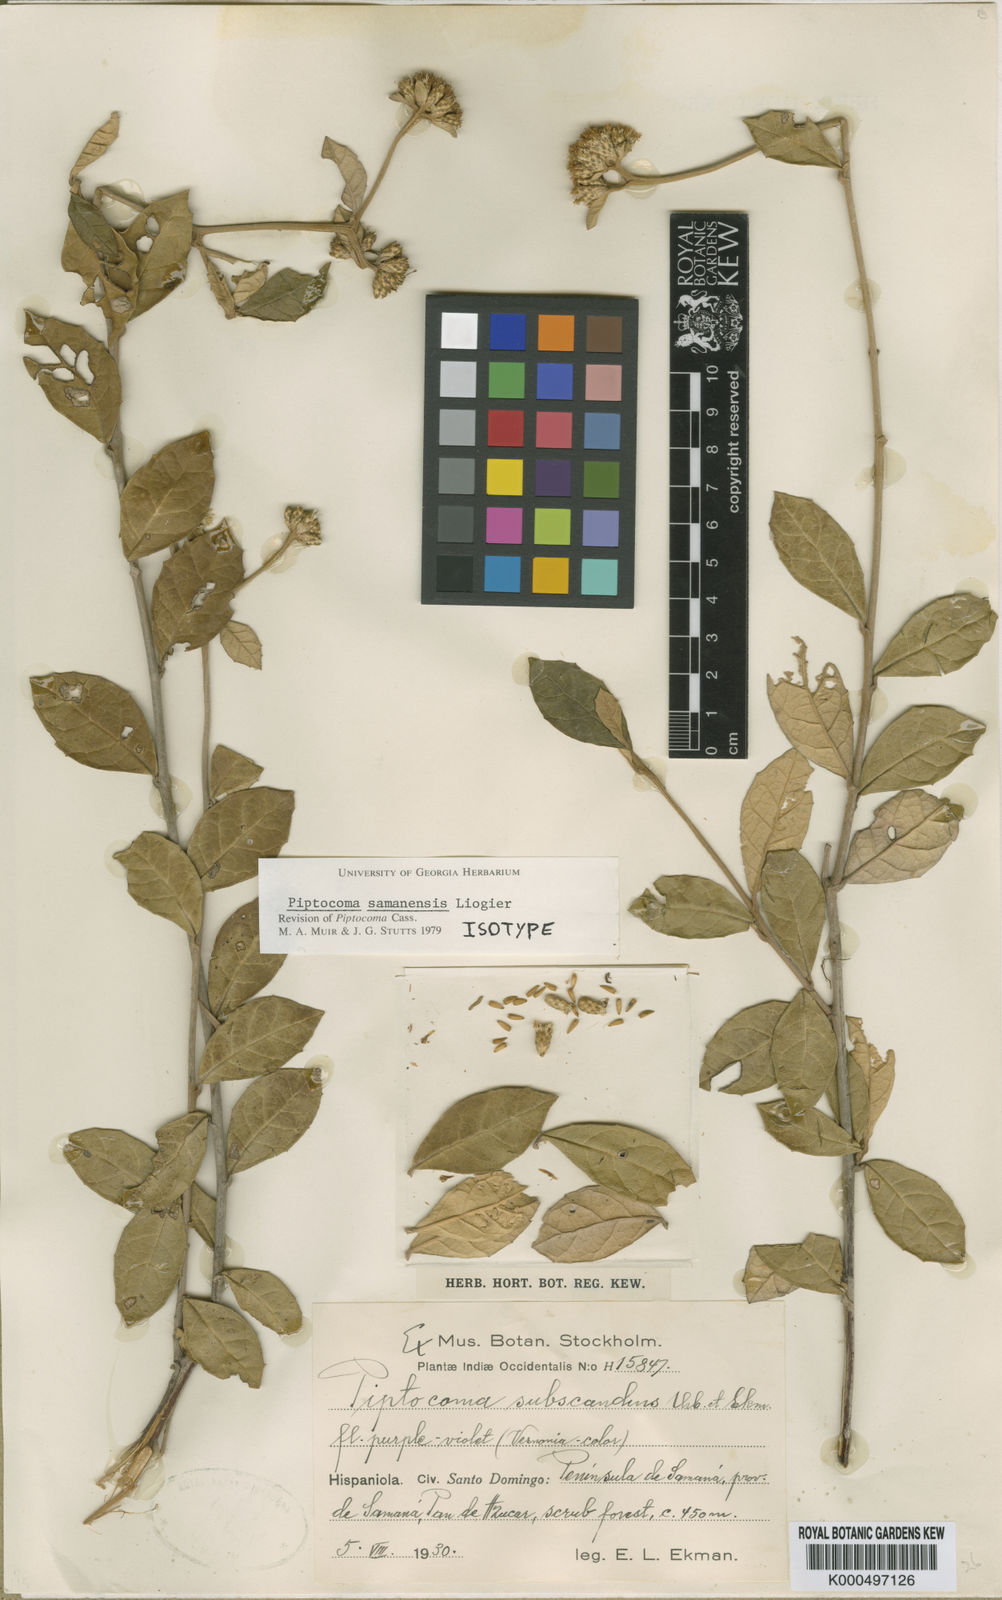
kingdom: Plantae
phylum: Tracheophyta
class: Magnoliopsida
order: Asterales
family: Asteraceae
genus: Piptocoma
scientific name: Piptocoma
